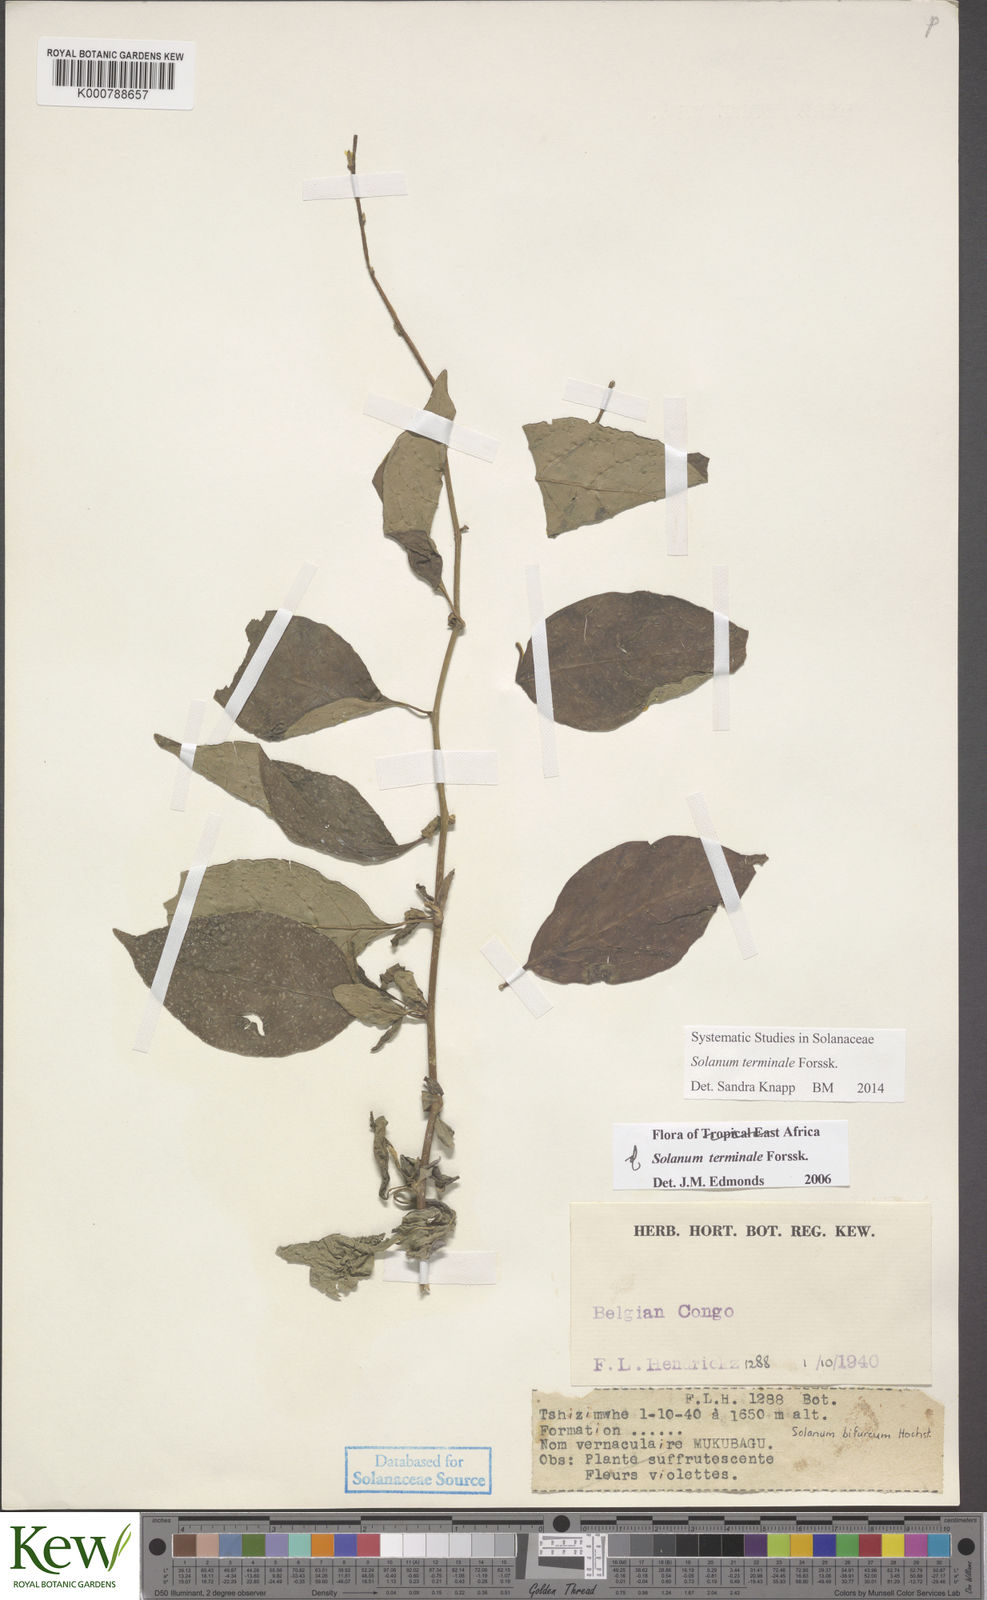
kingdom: Plantae
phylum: Tracheophyta
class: Magnoliopsida
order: Solanales
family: Solanaceae
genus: Solanum
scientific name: Solanum terminale
